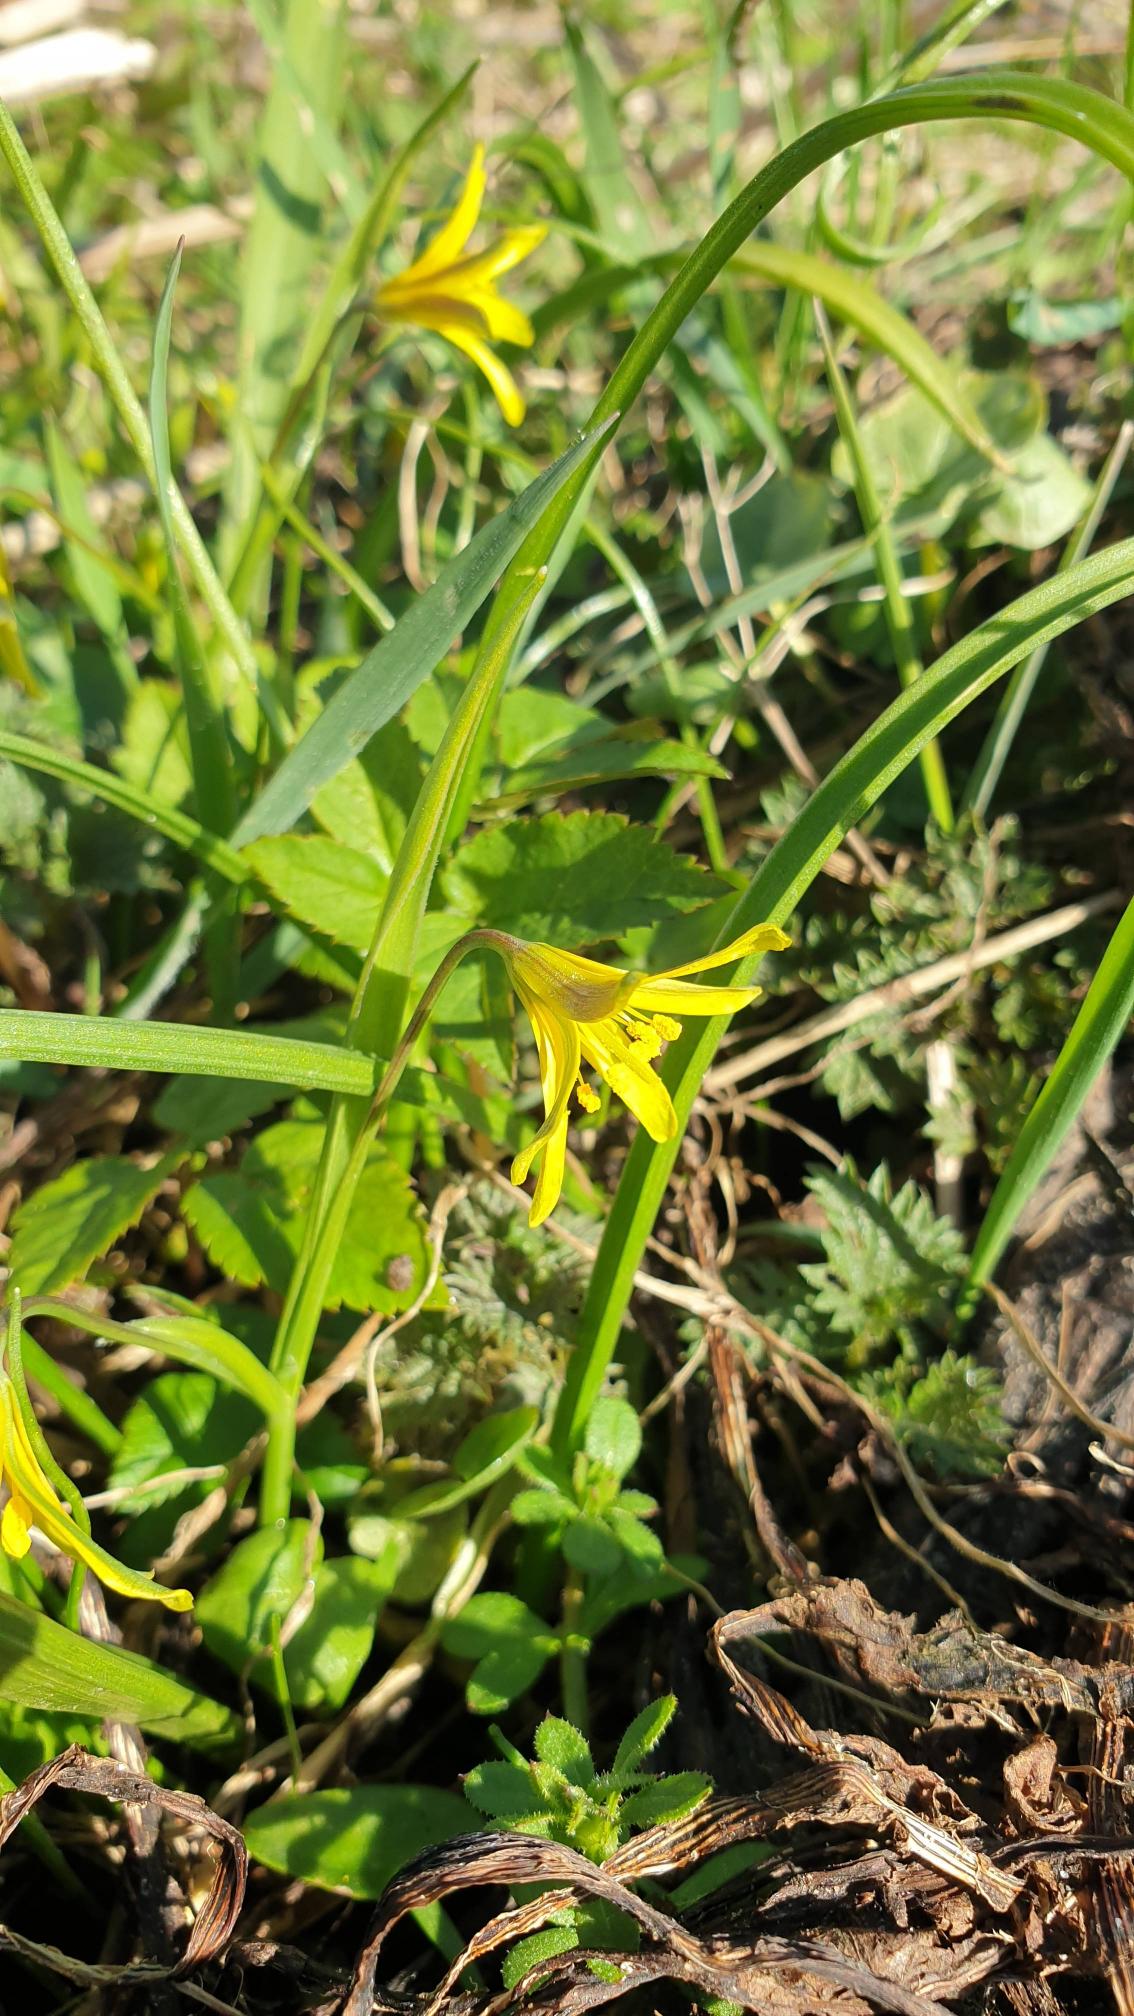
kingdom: Plantae
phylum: Tracheophyta
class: Liliopsida
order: Liliales
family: Liliaceae
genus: Gagea
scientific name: Gagea lutea
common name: Almindelig guldstjerne
